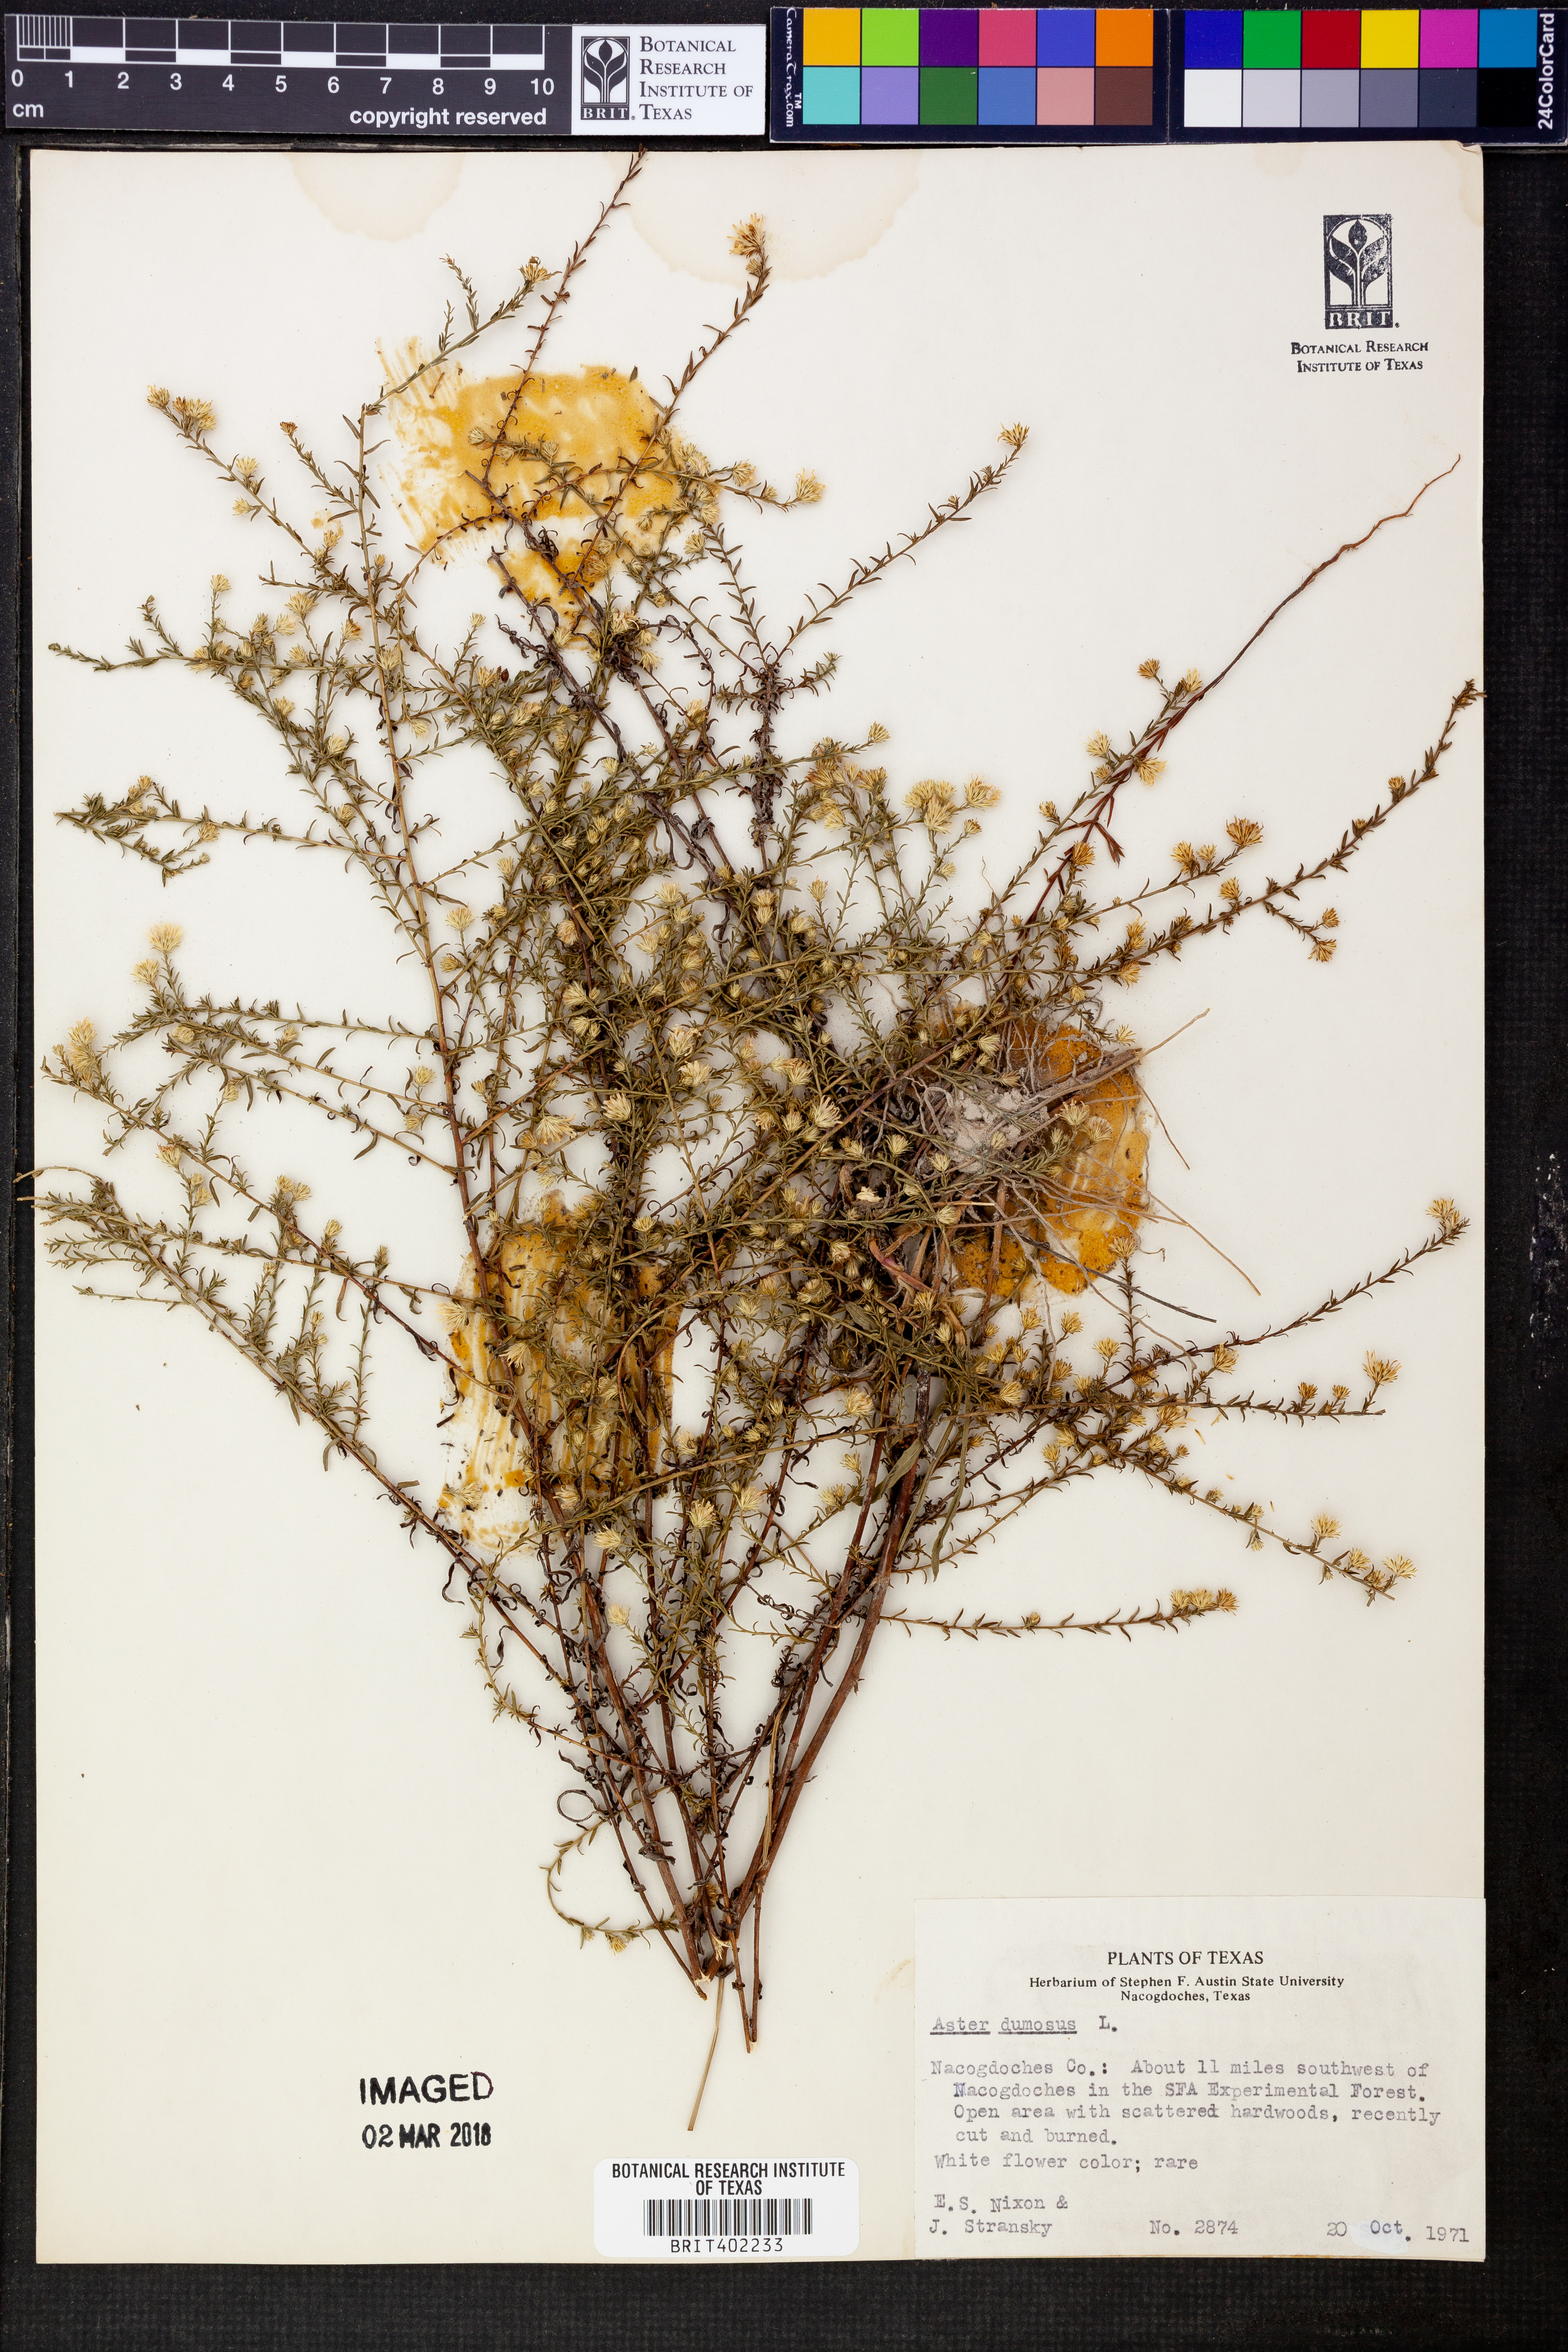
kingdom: Plantae
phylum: Tracheophyta
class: Magnoliopsida
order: Asterales
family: Asteraceae
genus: Symphyotrichum
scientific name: Symphyotrichum dumosum
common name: Bushy aster
